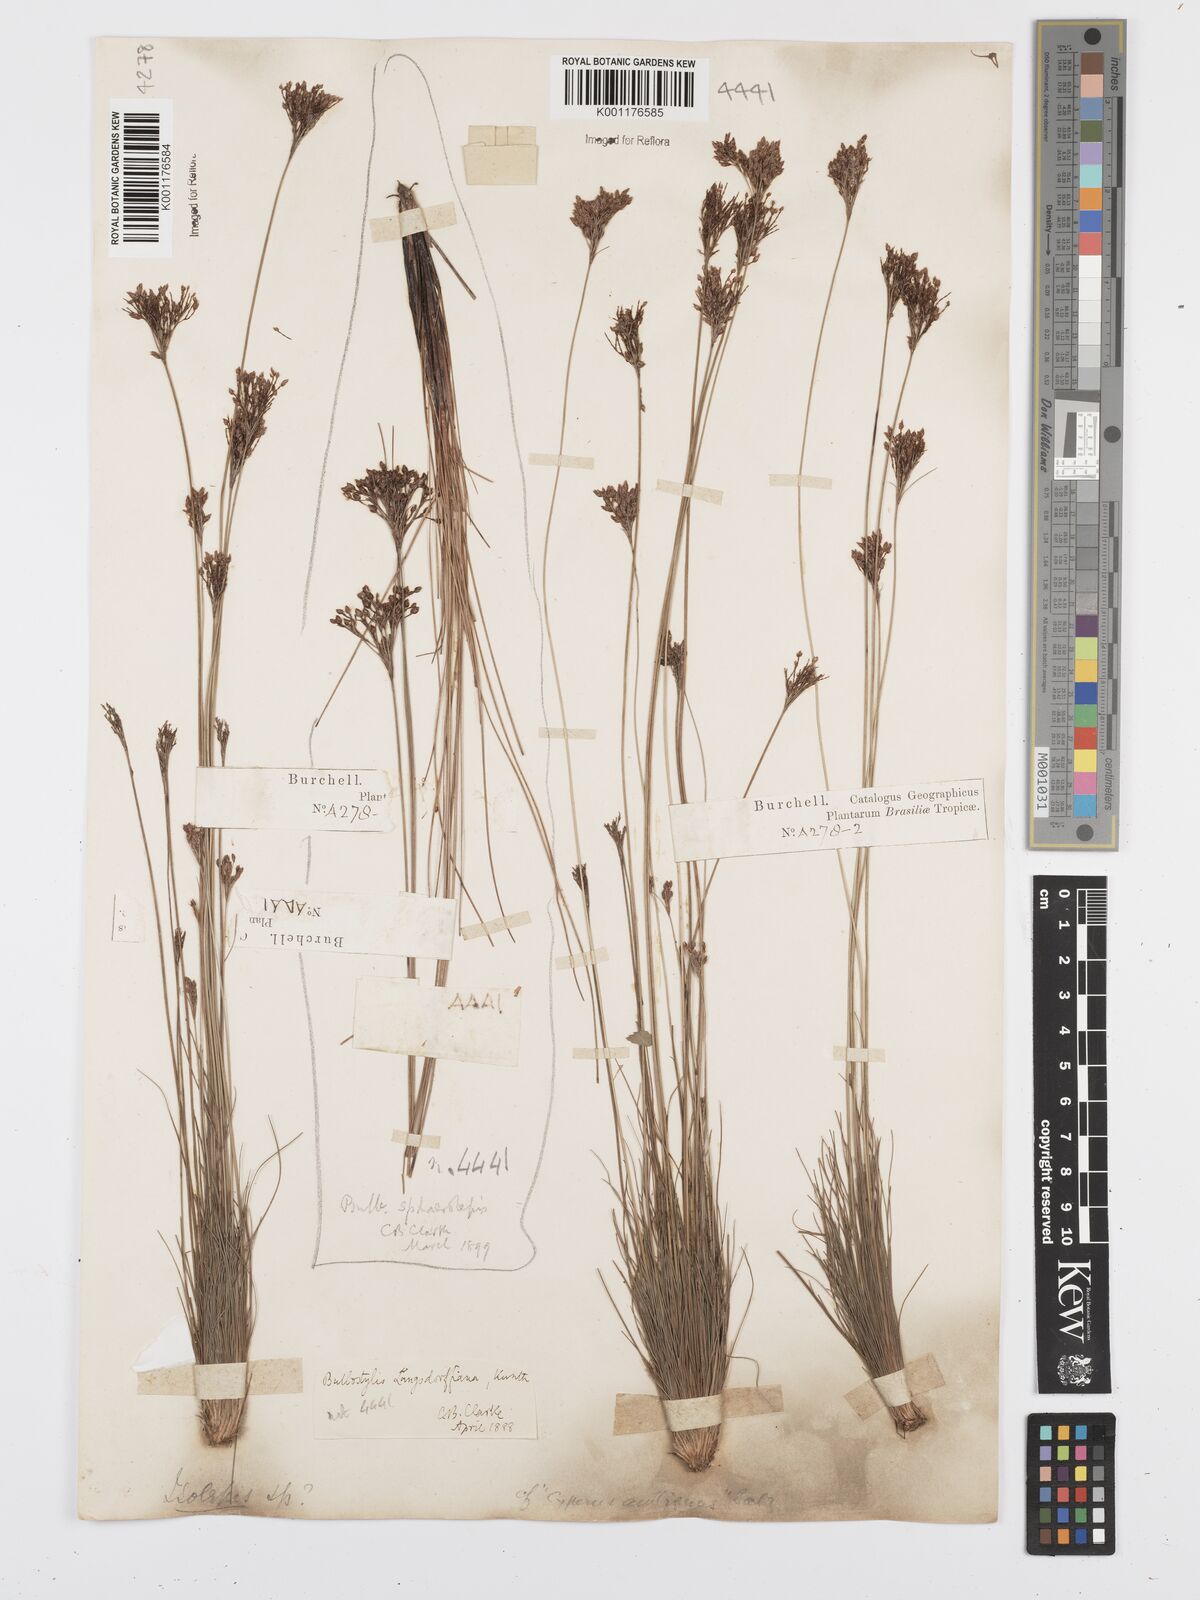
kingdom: Plantae
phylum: Tracheophyta
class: Liliopsida
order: Poales
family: Cyperaceae
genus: Bulbostylis
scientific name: Bulbostylis scabra
